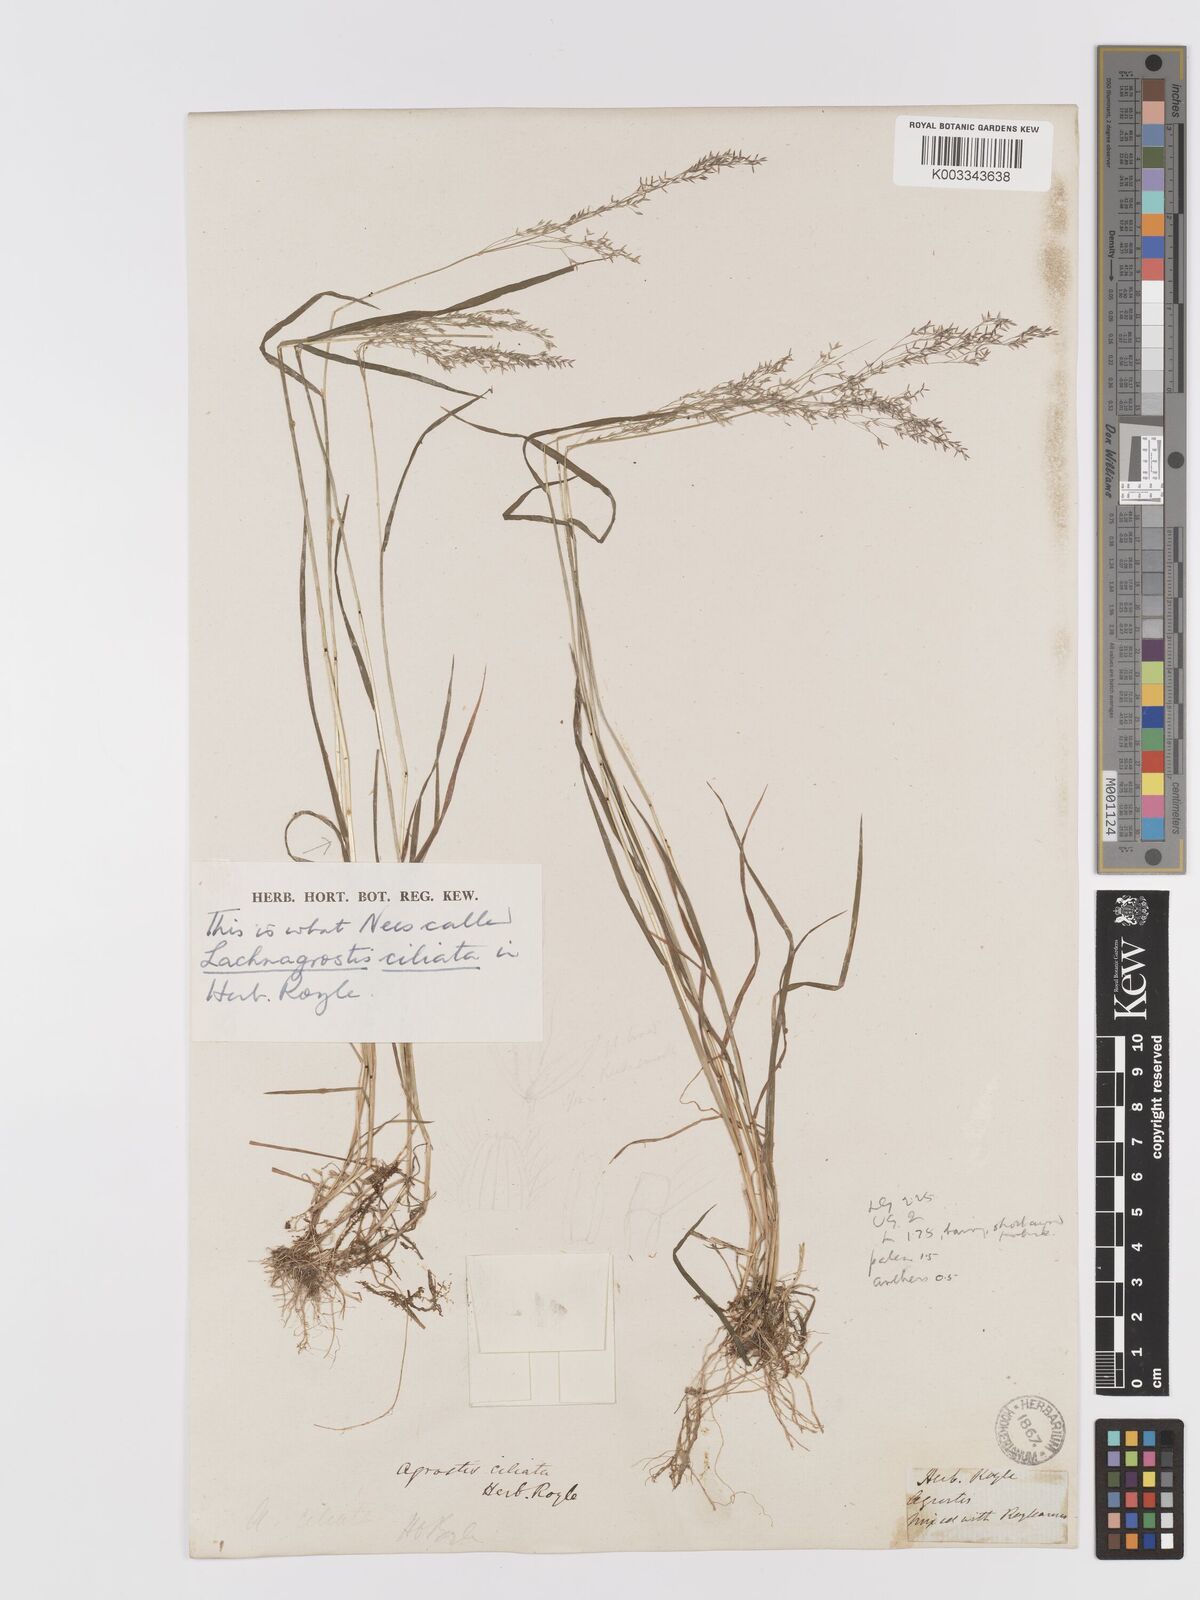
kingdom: Plantae
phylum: Tracheophyta
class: Liliopsida
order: Poales
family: Poaceae
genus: Agrostis
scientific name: Agrostis munroana
